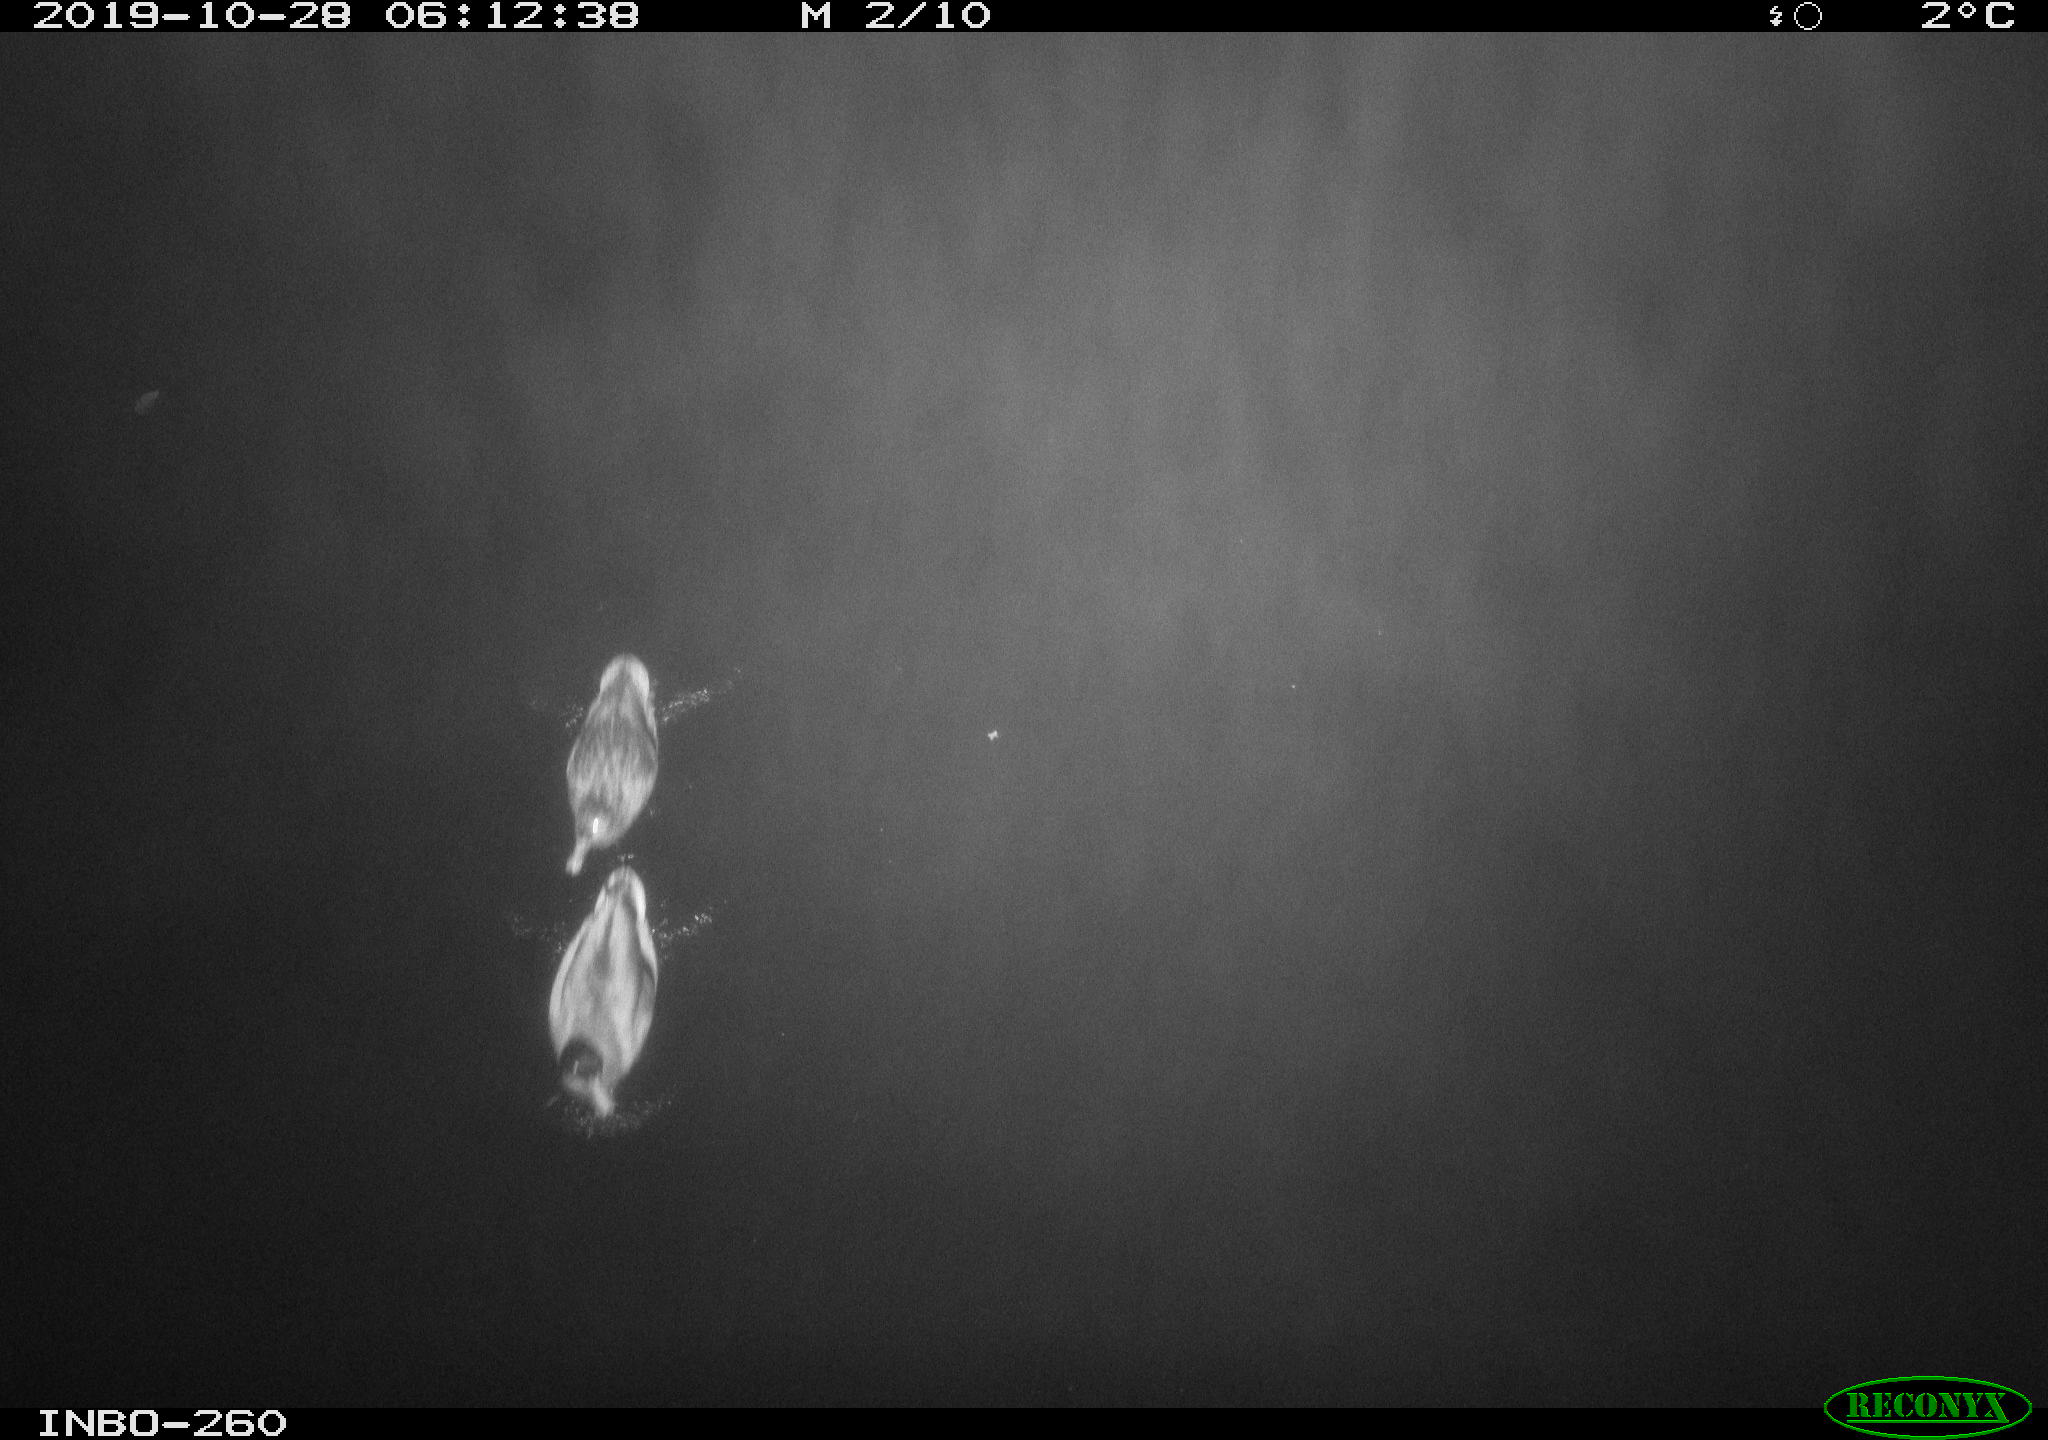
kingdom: Animalia
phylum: Chordata
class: Aves
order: Anseriformes
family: Anatidae
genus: Anas
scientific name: Anas platyrhynchos
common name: Mallard
